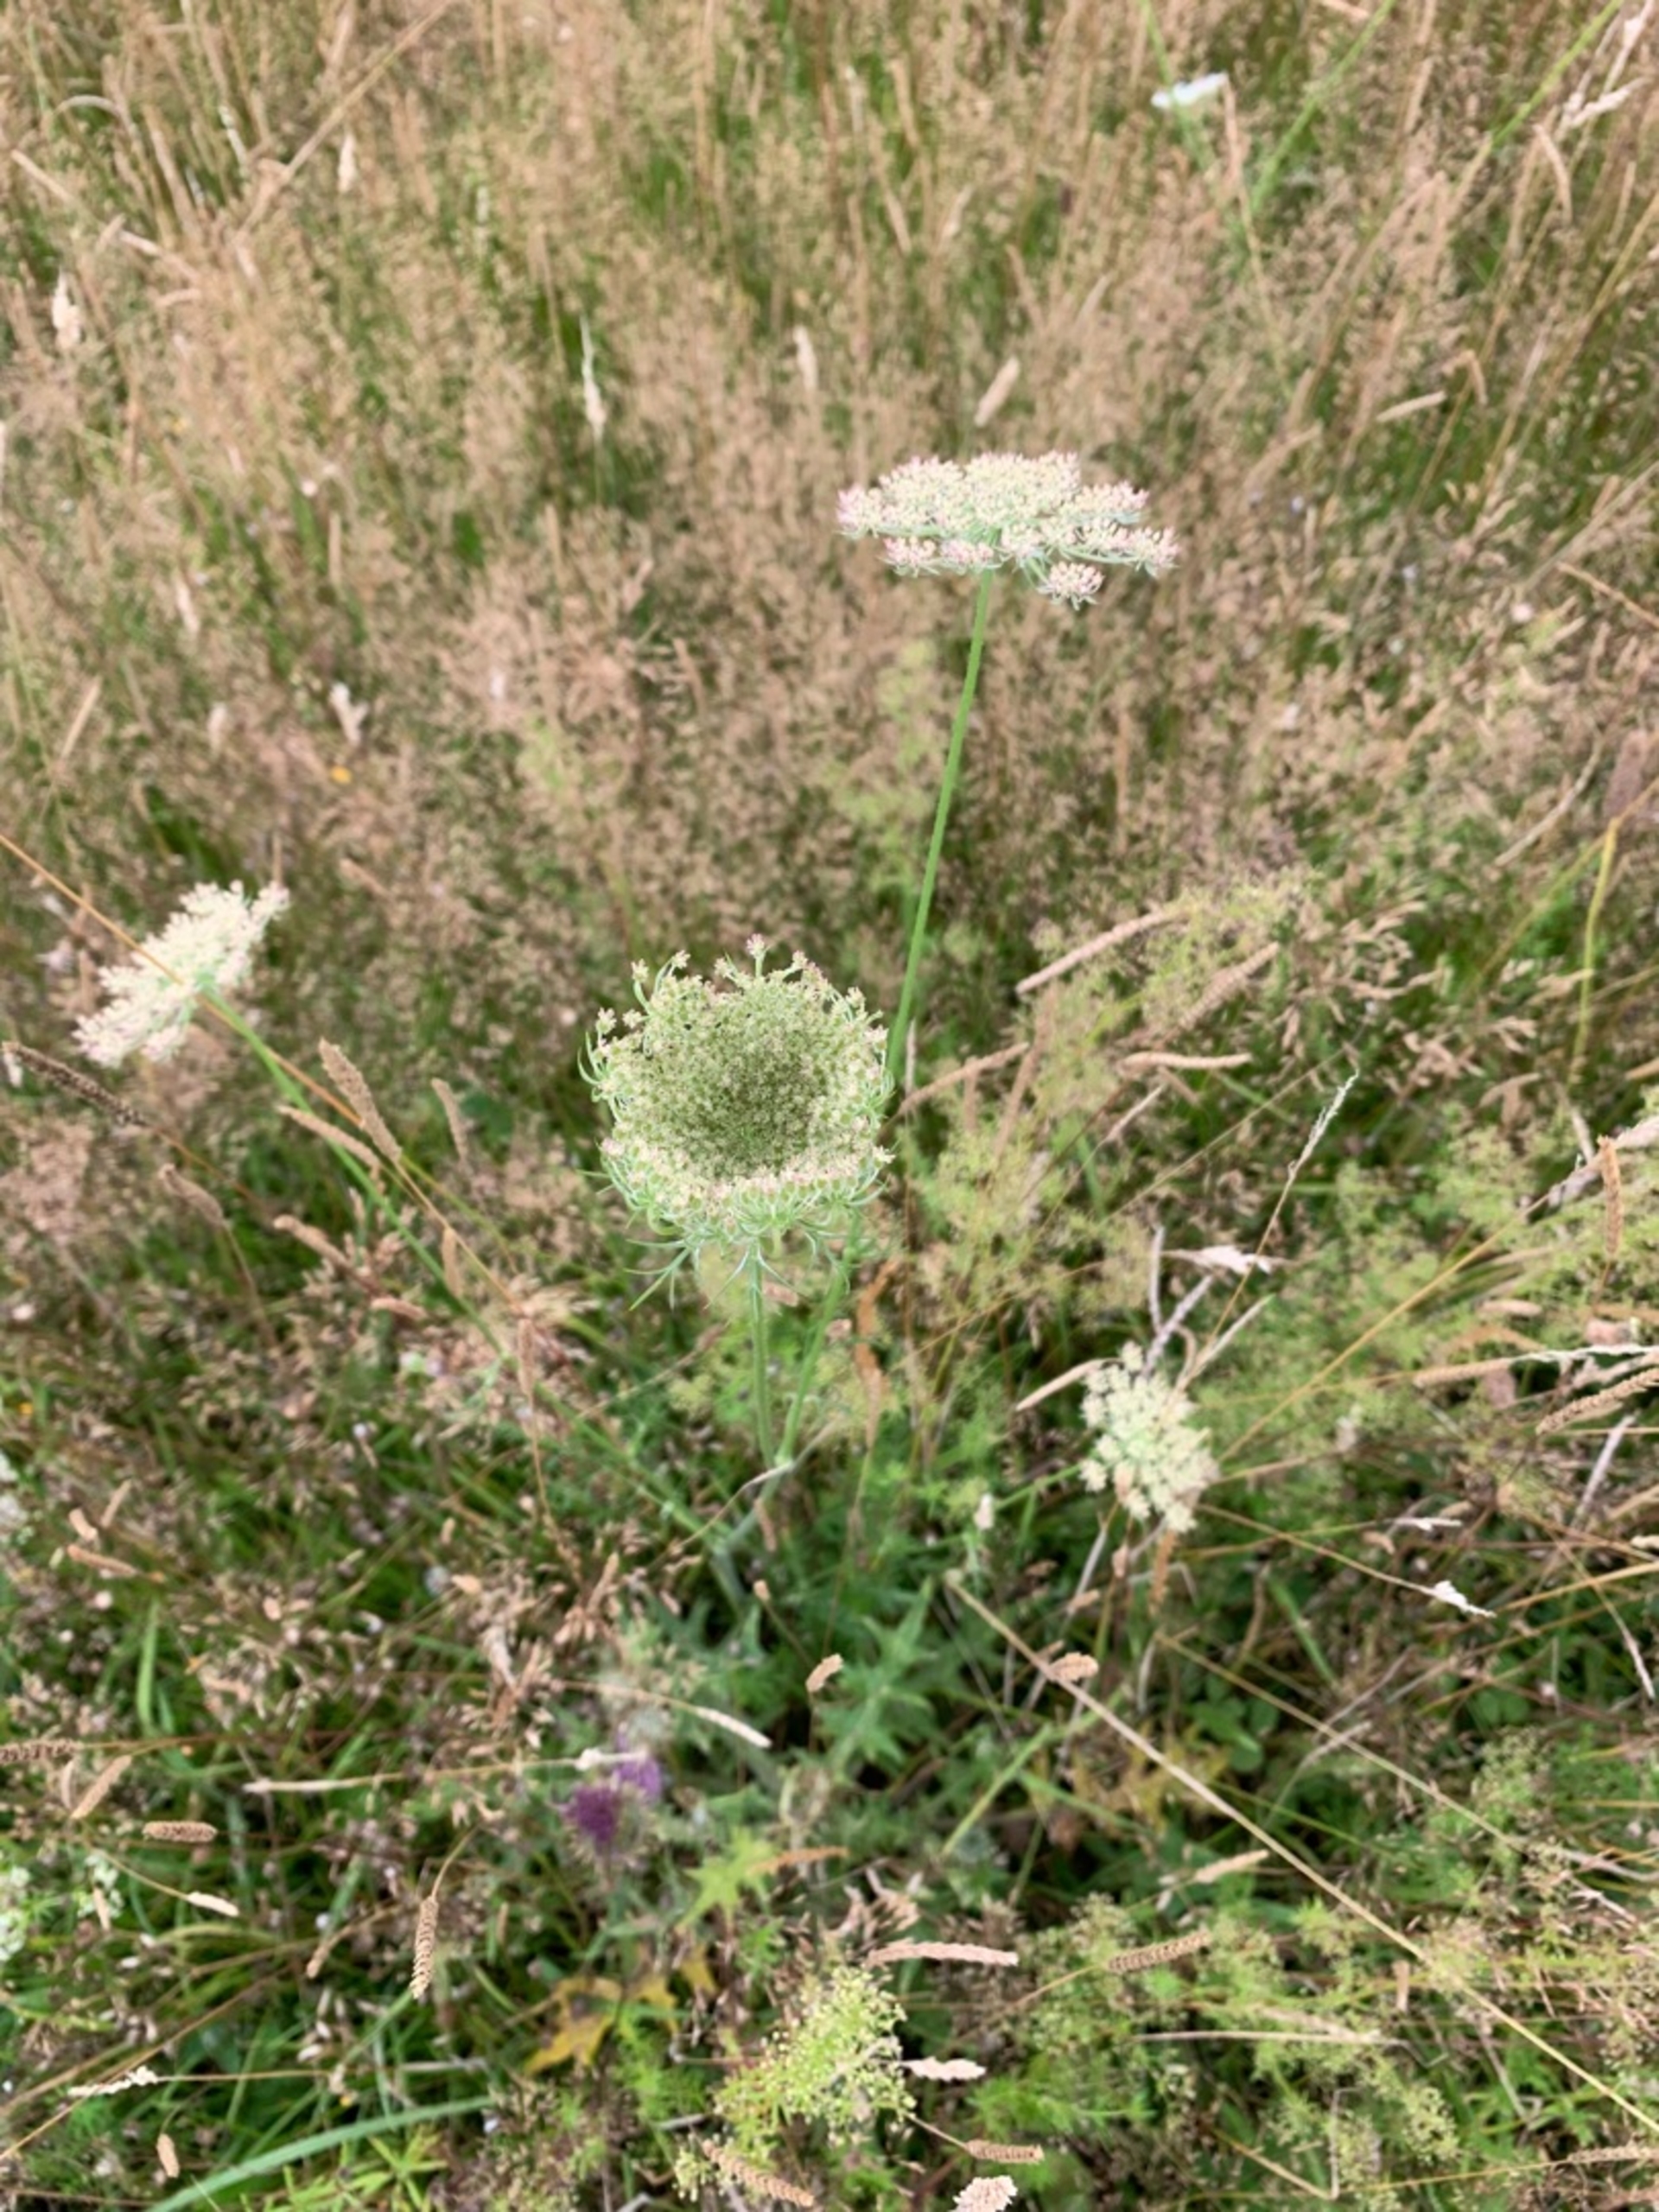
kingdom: Plantae
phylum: Tracheophyta
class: Magnoliopsida
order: Apiales
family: Apiaceae
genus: Daucus
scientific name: Daucus carota
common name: Vild gulerod
